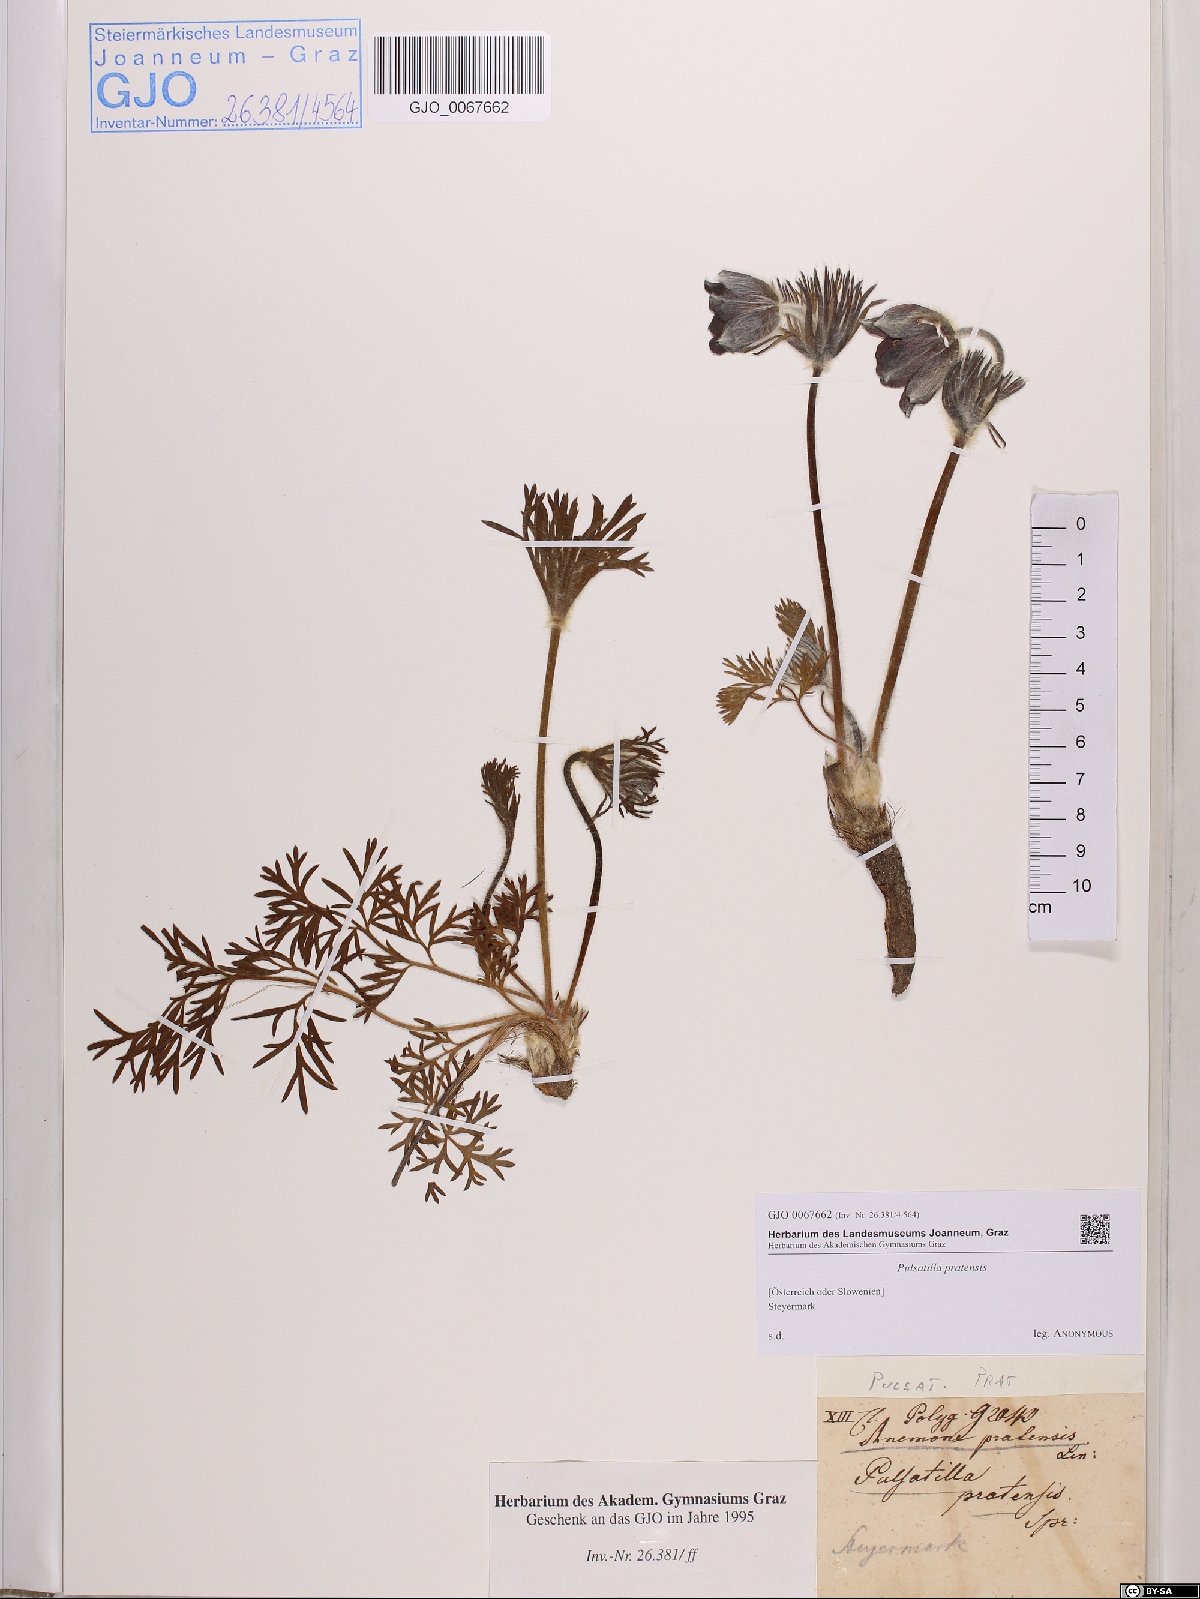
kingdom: Plantae
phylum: Tracheophyta
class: Magnoliopsida
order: Ranunculales
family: Ranunculaceae
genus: Pulsatilla
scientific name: Pulsatilla pratensis
